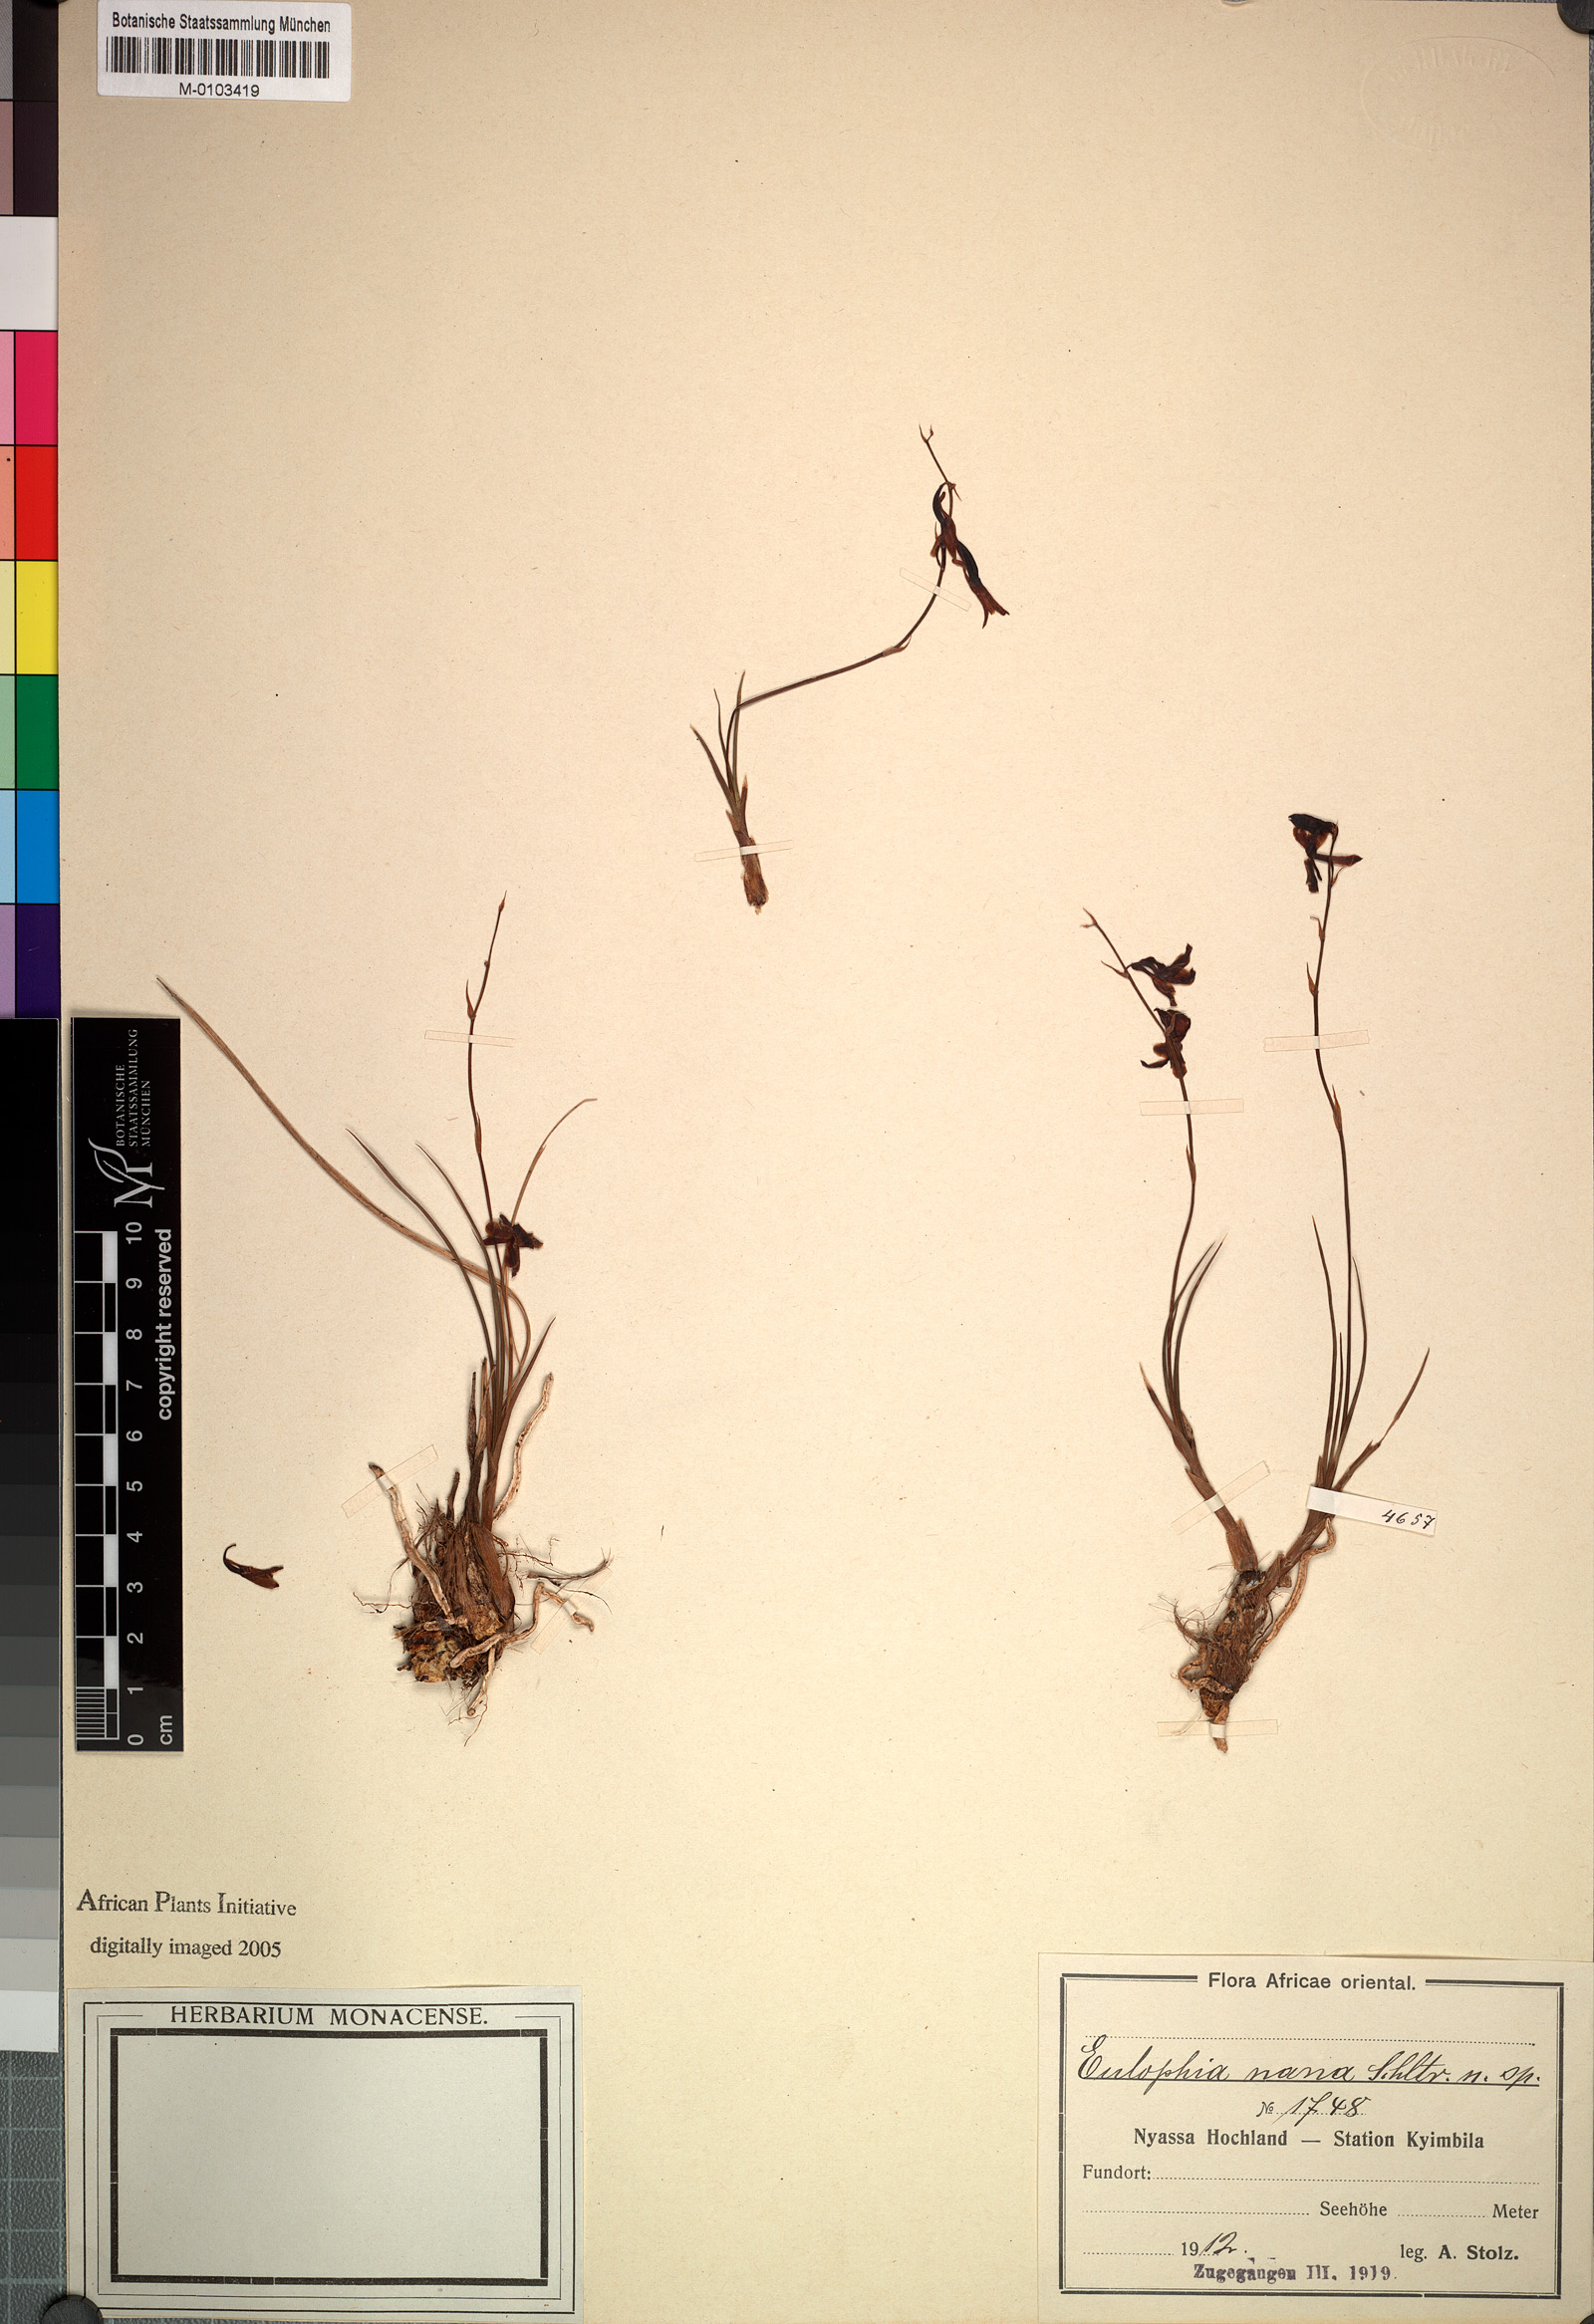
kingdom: Plantae
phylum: Tracheophyta
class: Liliopsida
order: Asparagales
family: Orchidaceae
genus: Eulophia
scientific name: Eulophia penduliflora
